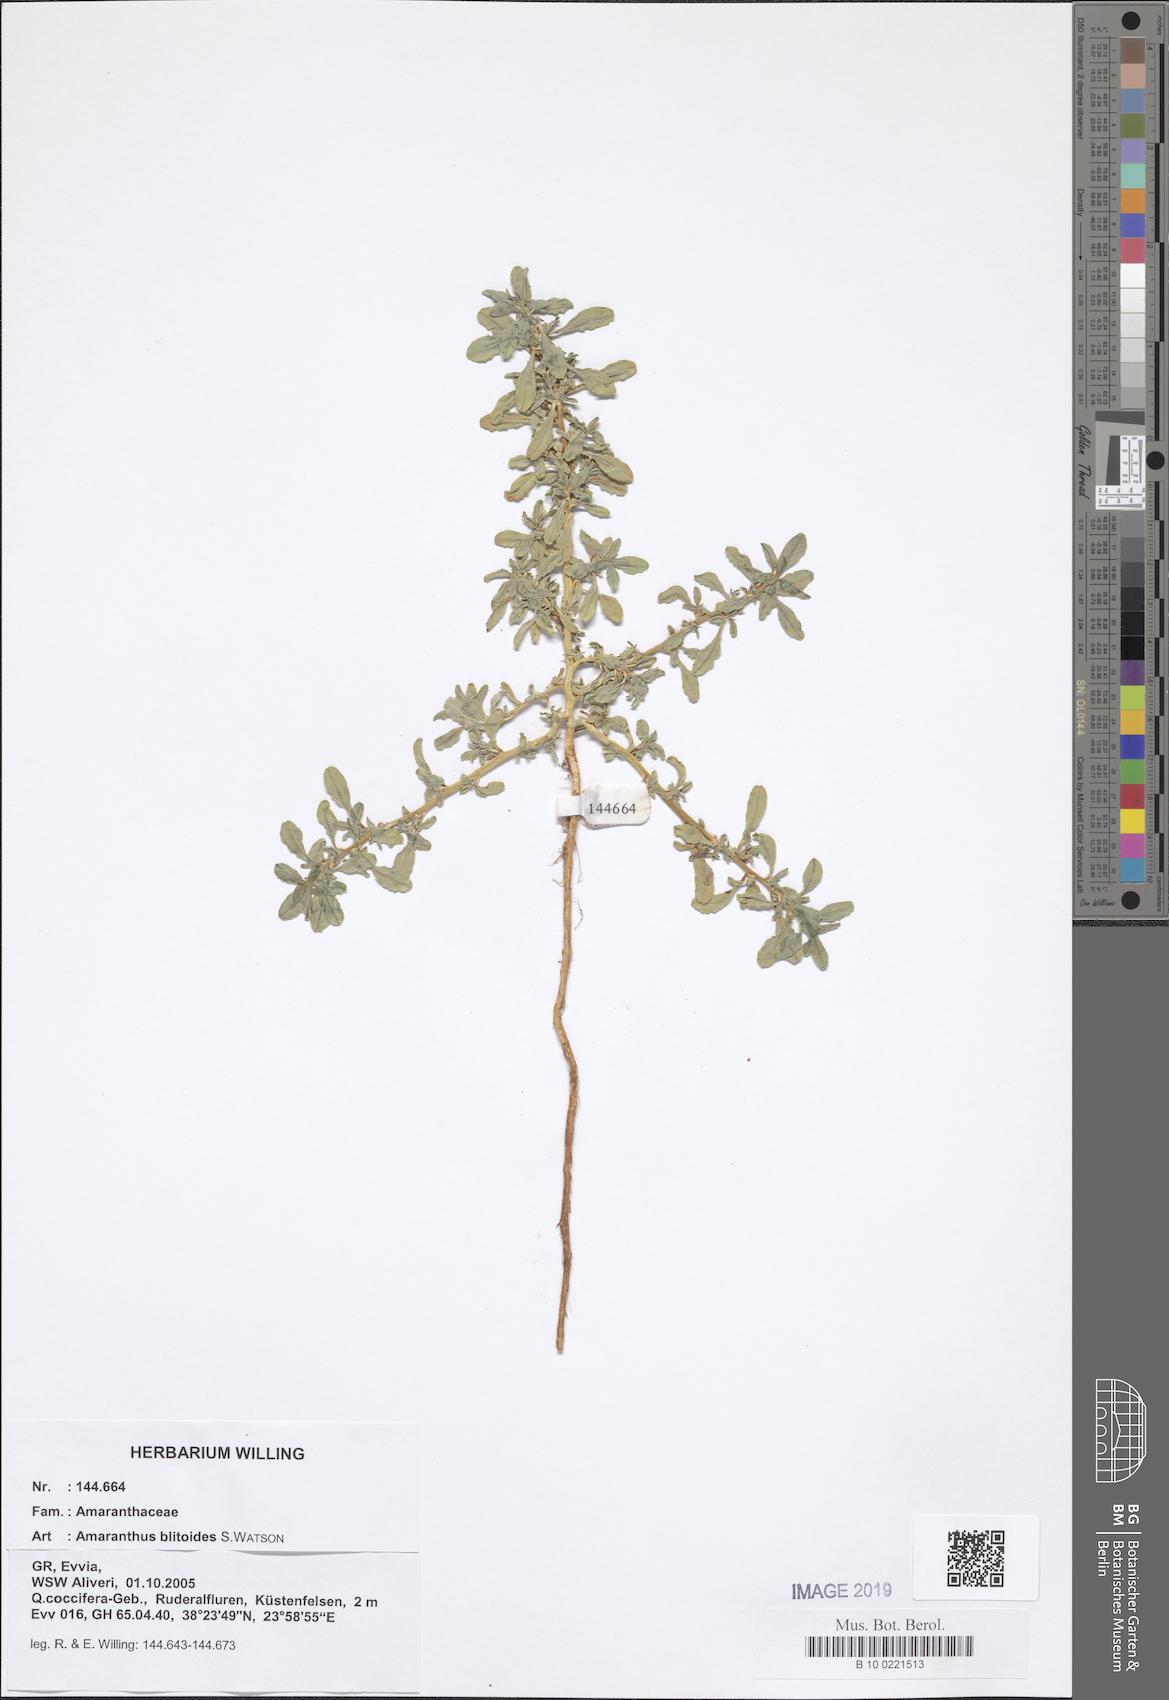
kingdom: Plantae
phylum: Tracheophyta
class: Magnoliopsida
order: Caryophyllales
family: Amaranthaceae
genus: Amaranthus
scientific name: Amaranthus blitoides
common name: Prostrate pigweed
